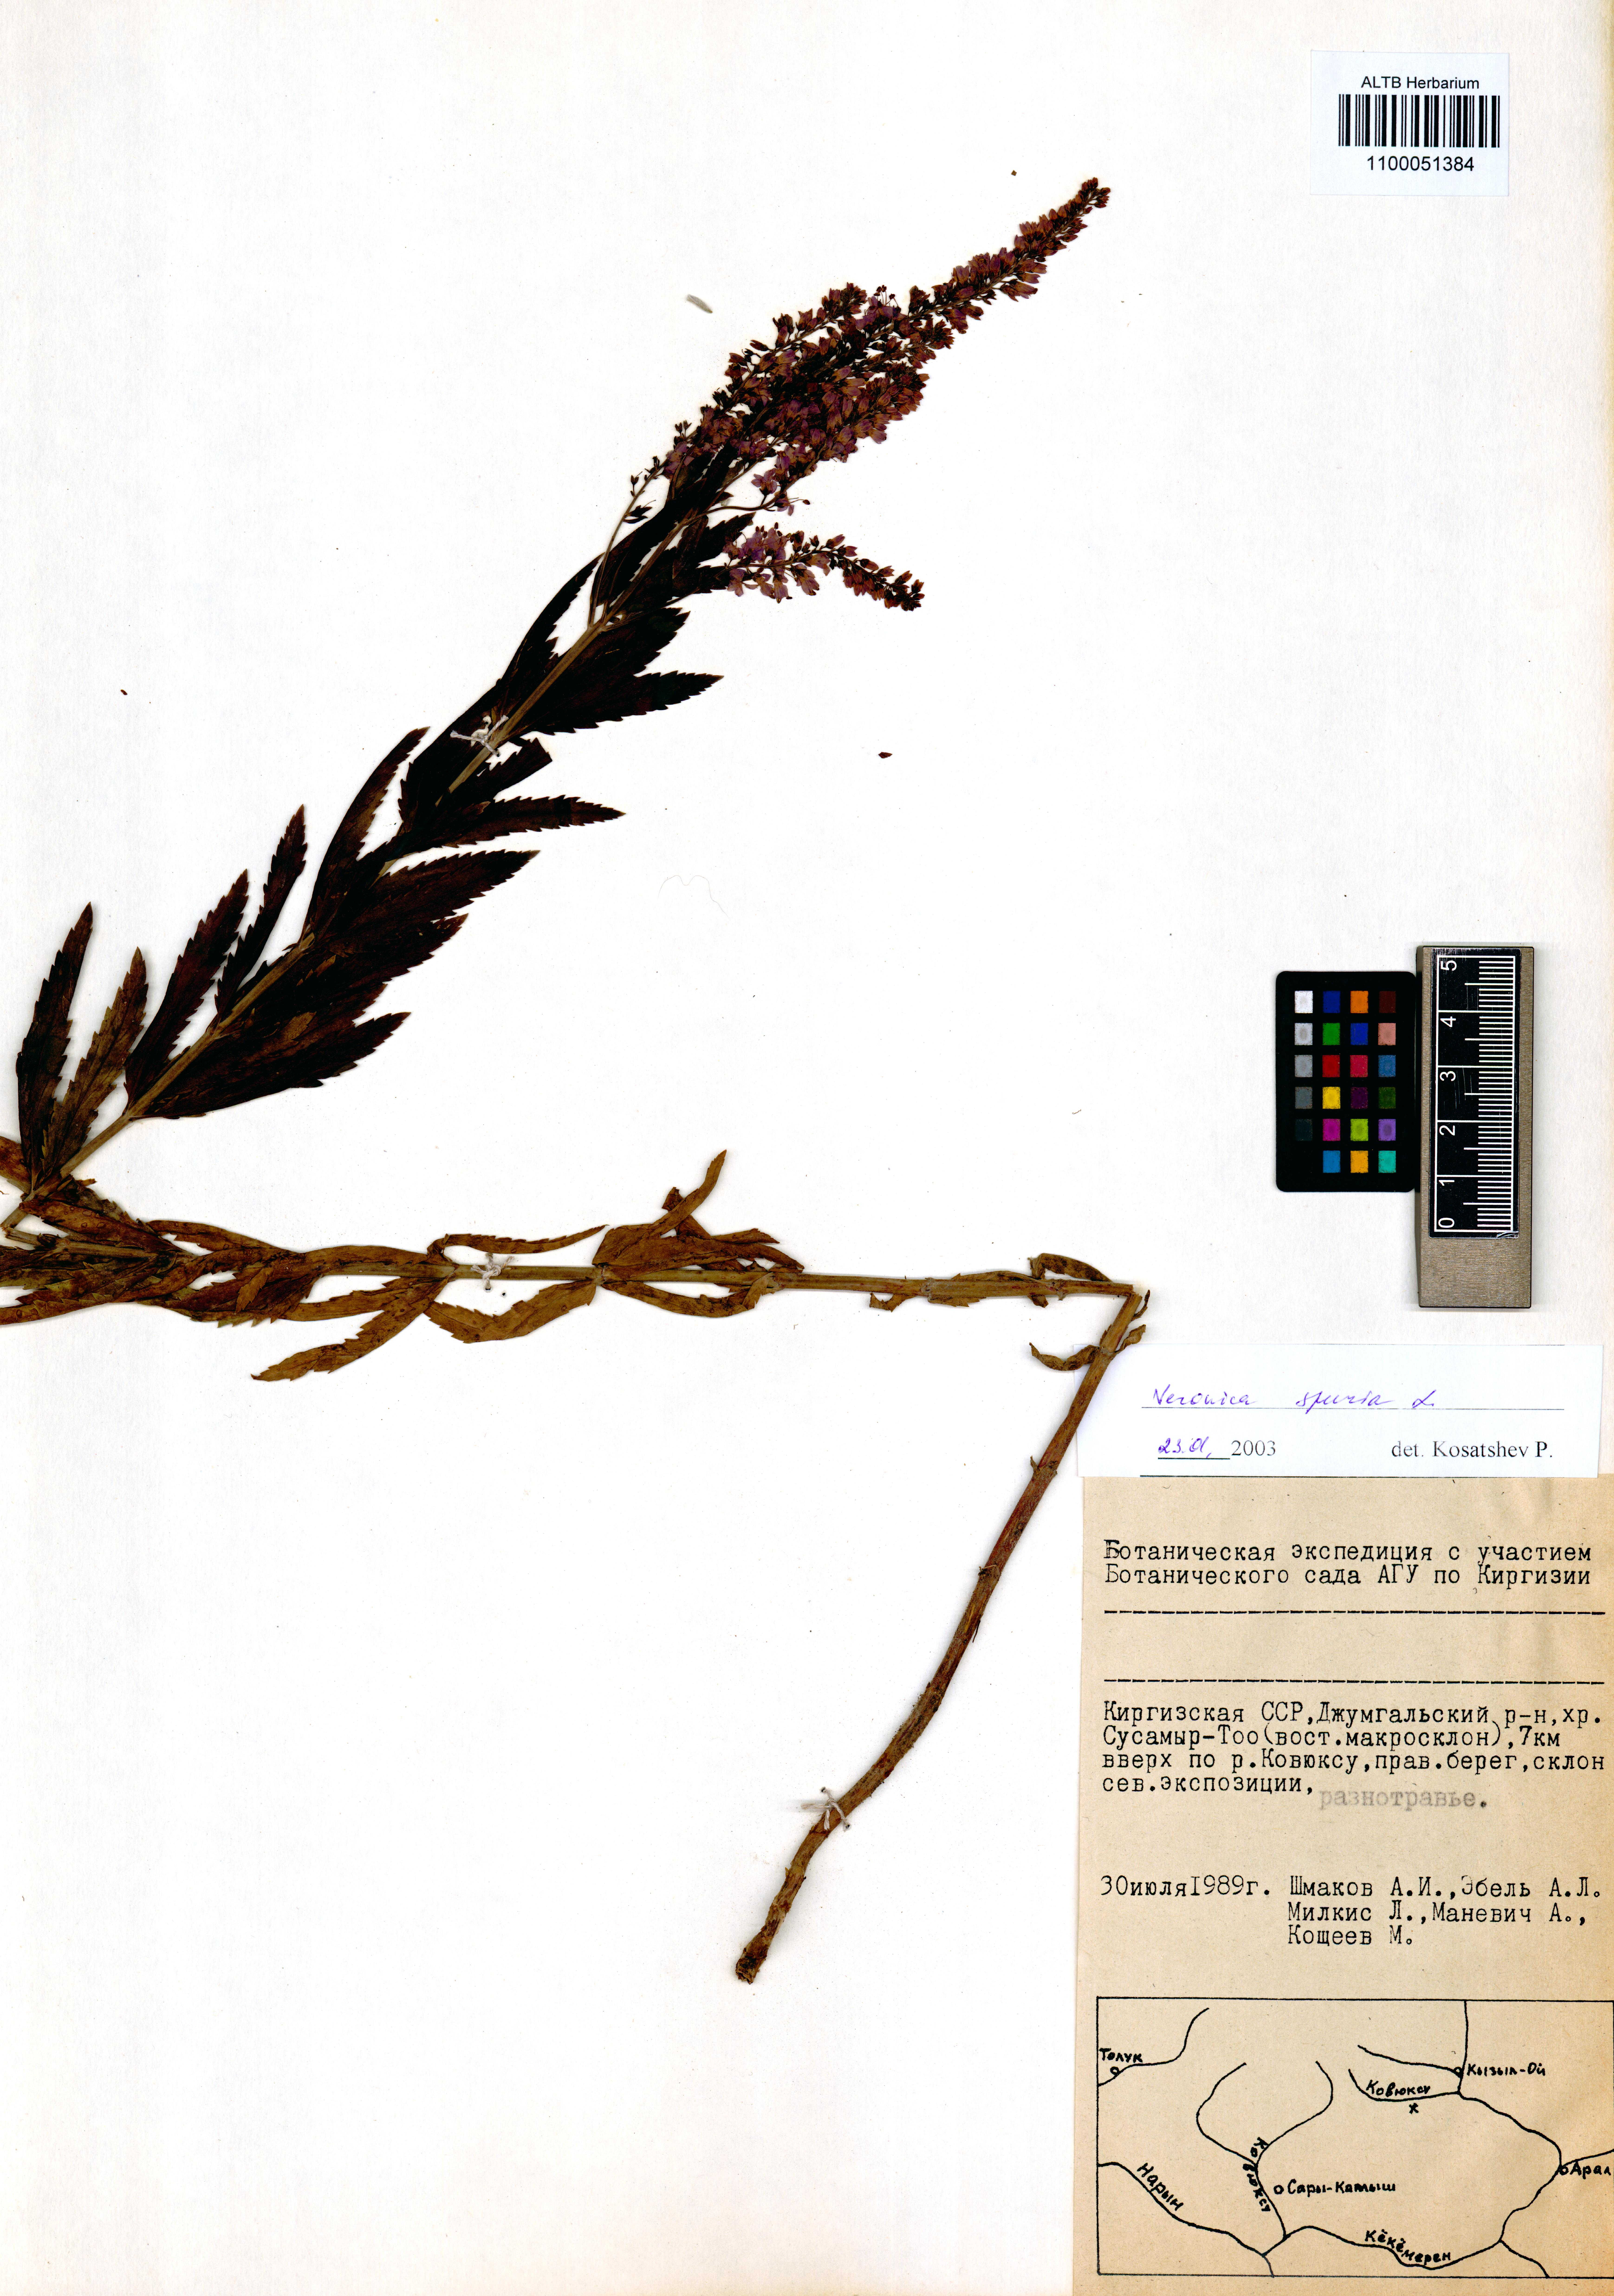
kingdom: Plantae
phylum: Tracheophyta
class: Magnoliopsida
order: Lamiales
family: Plantaginaceae
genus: Veronica
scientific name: Veronica spuria
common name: Bastard speedwell
